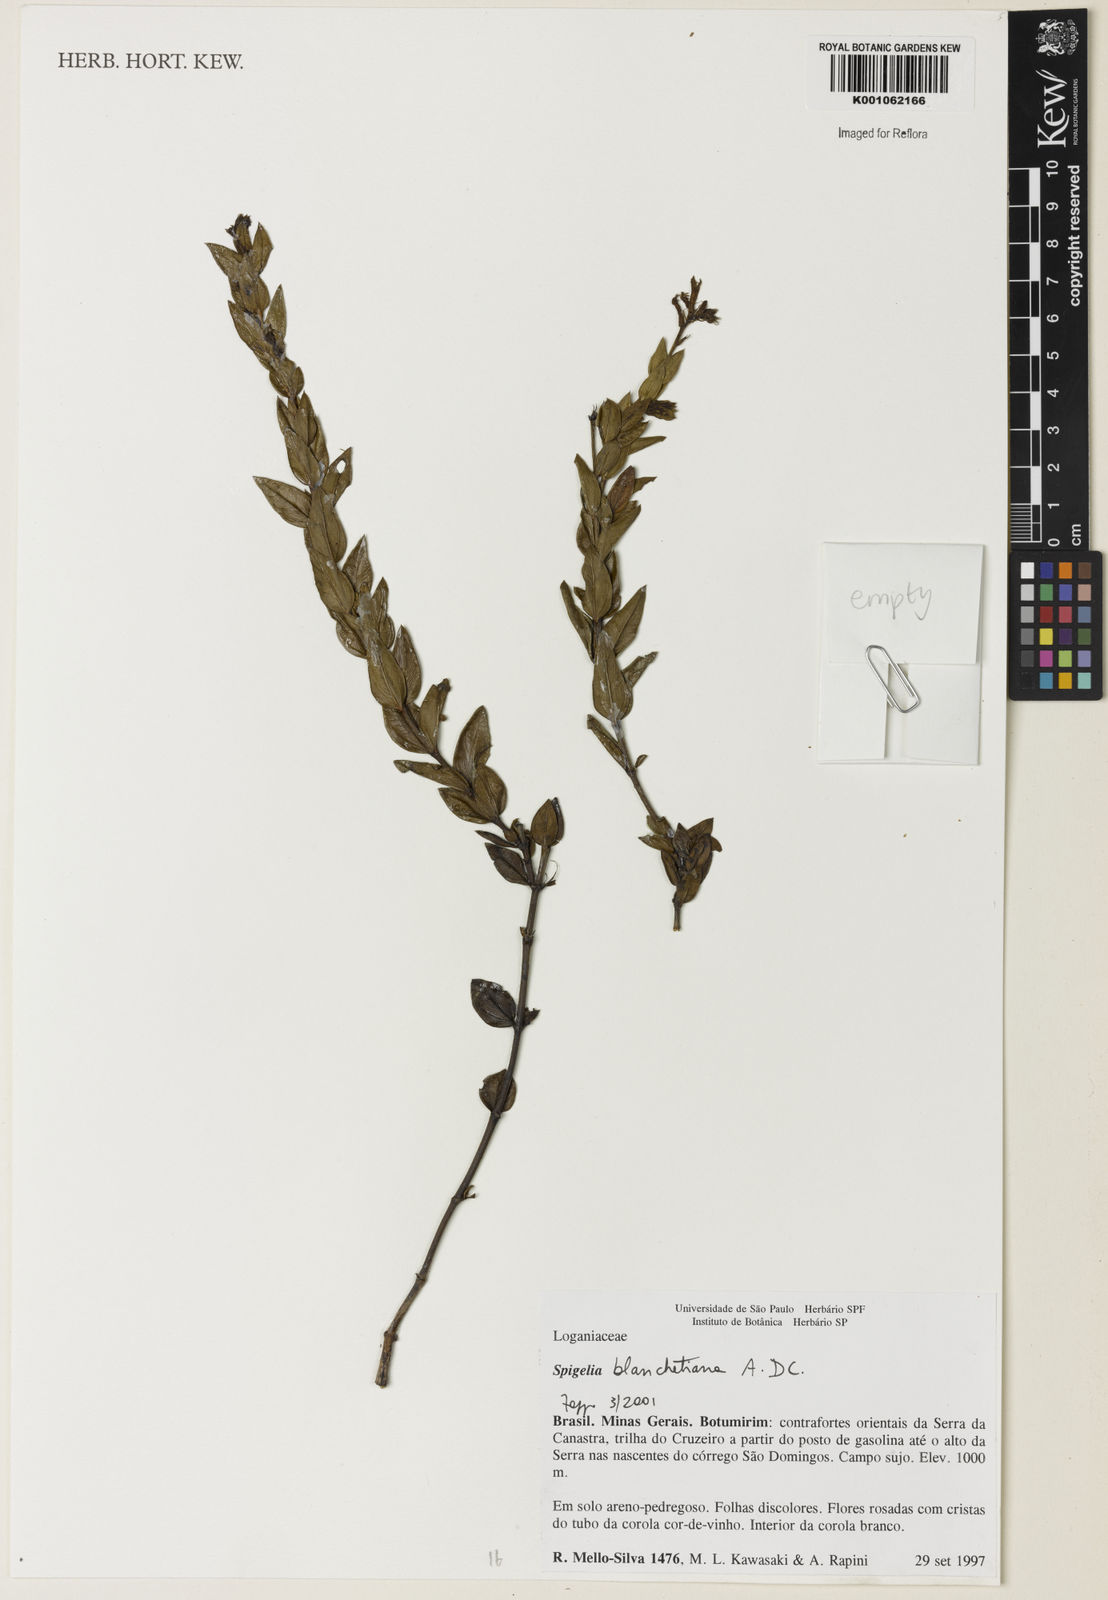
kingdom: Plantae
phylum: Tracheophyta
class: Magnoliopsida
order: Gentianales
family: Loganiaceae
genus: Spigelia
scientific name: Spigelia blanchetiana
